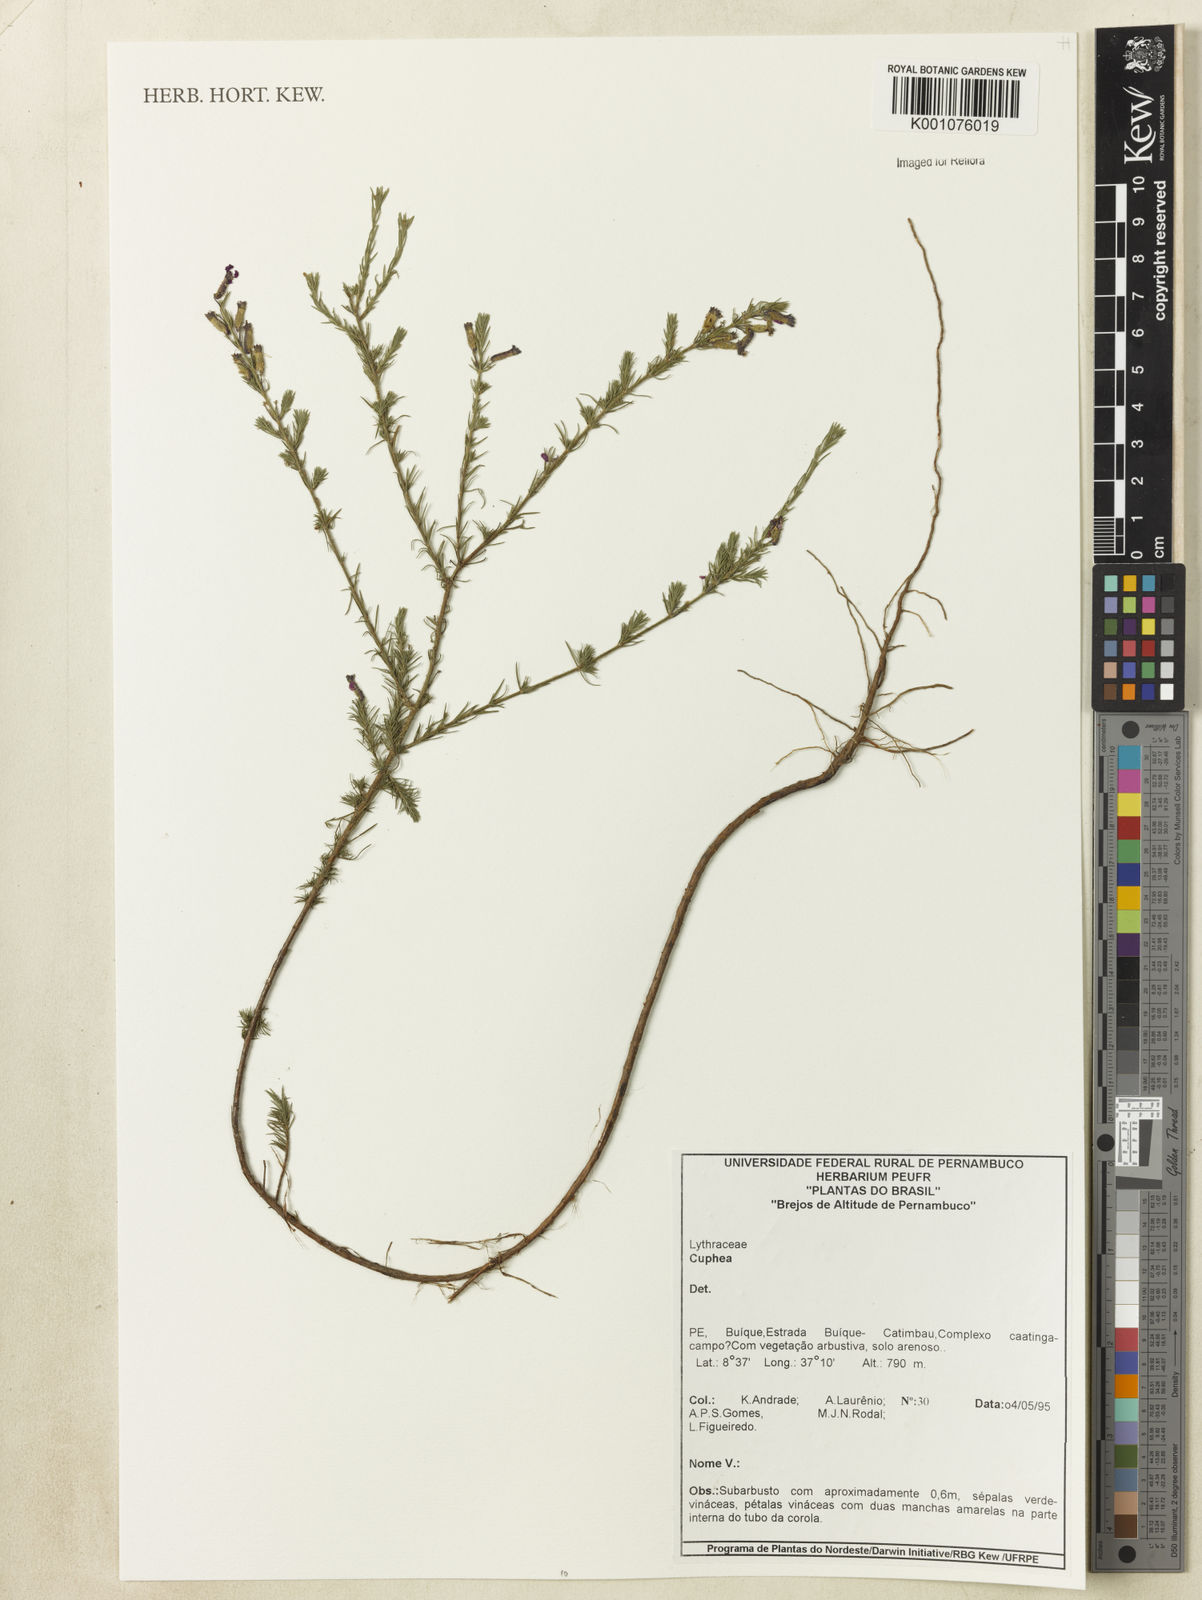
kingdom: Plantae
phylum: Tracheophyta
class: Magnoliopsida
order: Myrtales
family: Lythraceae
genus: Cuphea
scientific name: Cuphea
